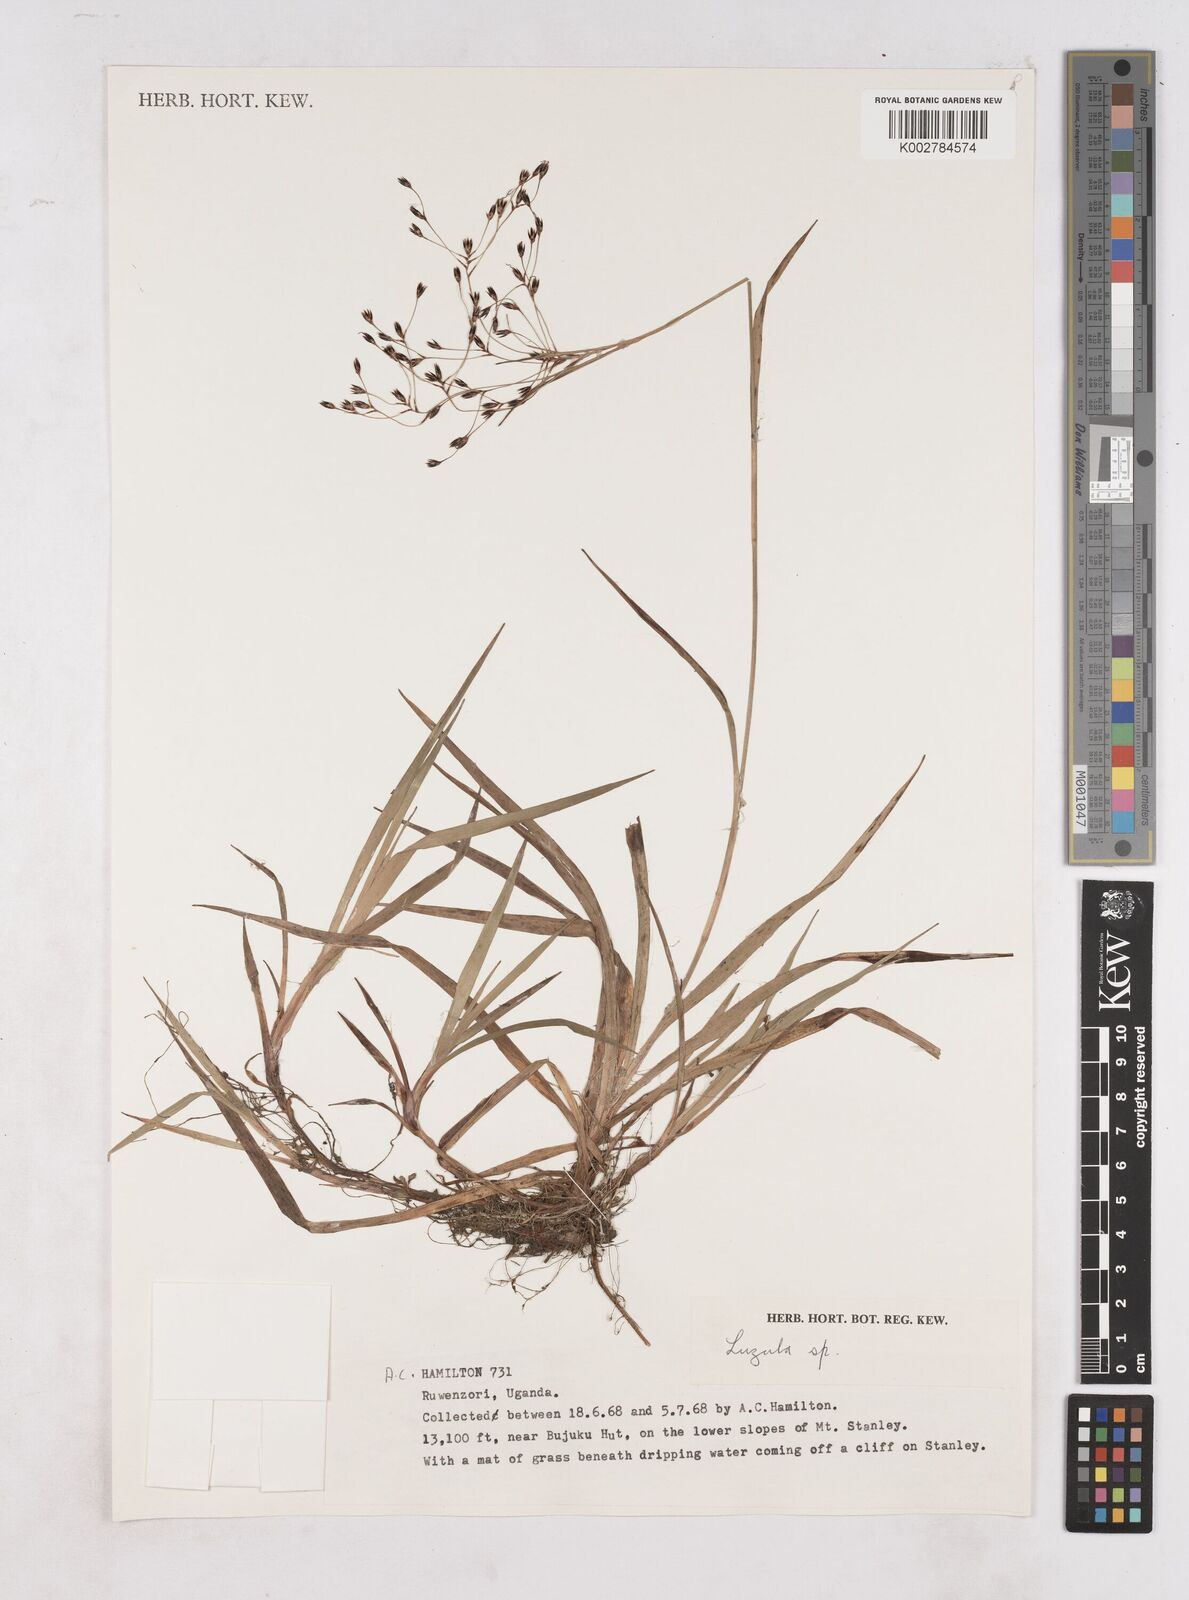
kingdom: Plantae
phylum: Tracheophyta
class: Liliopsida
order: Poales
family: Juncaceae
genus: Luzula
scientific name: Luzula
